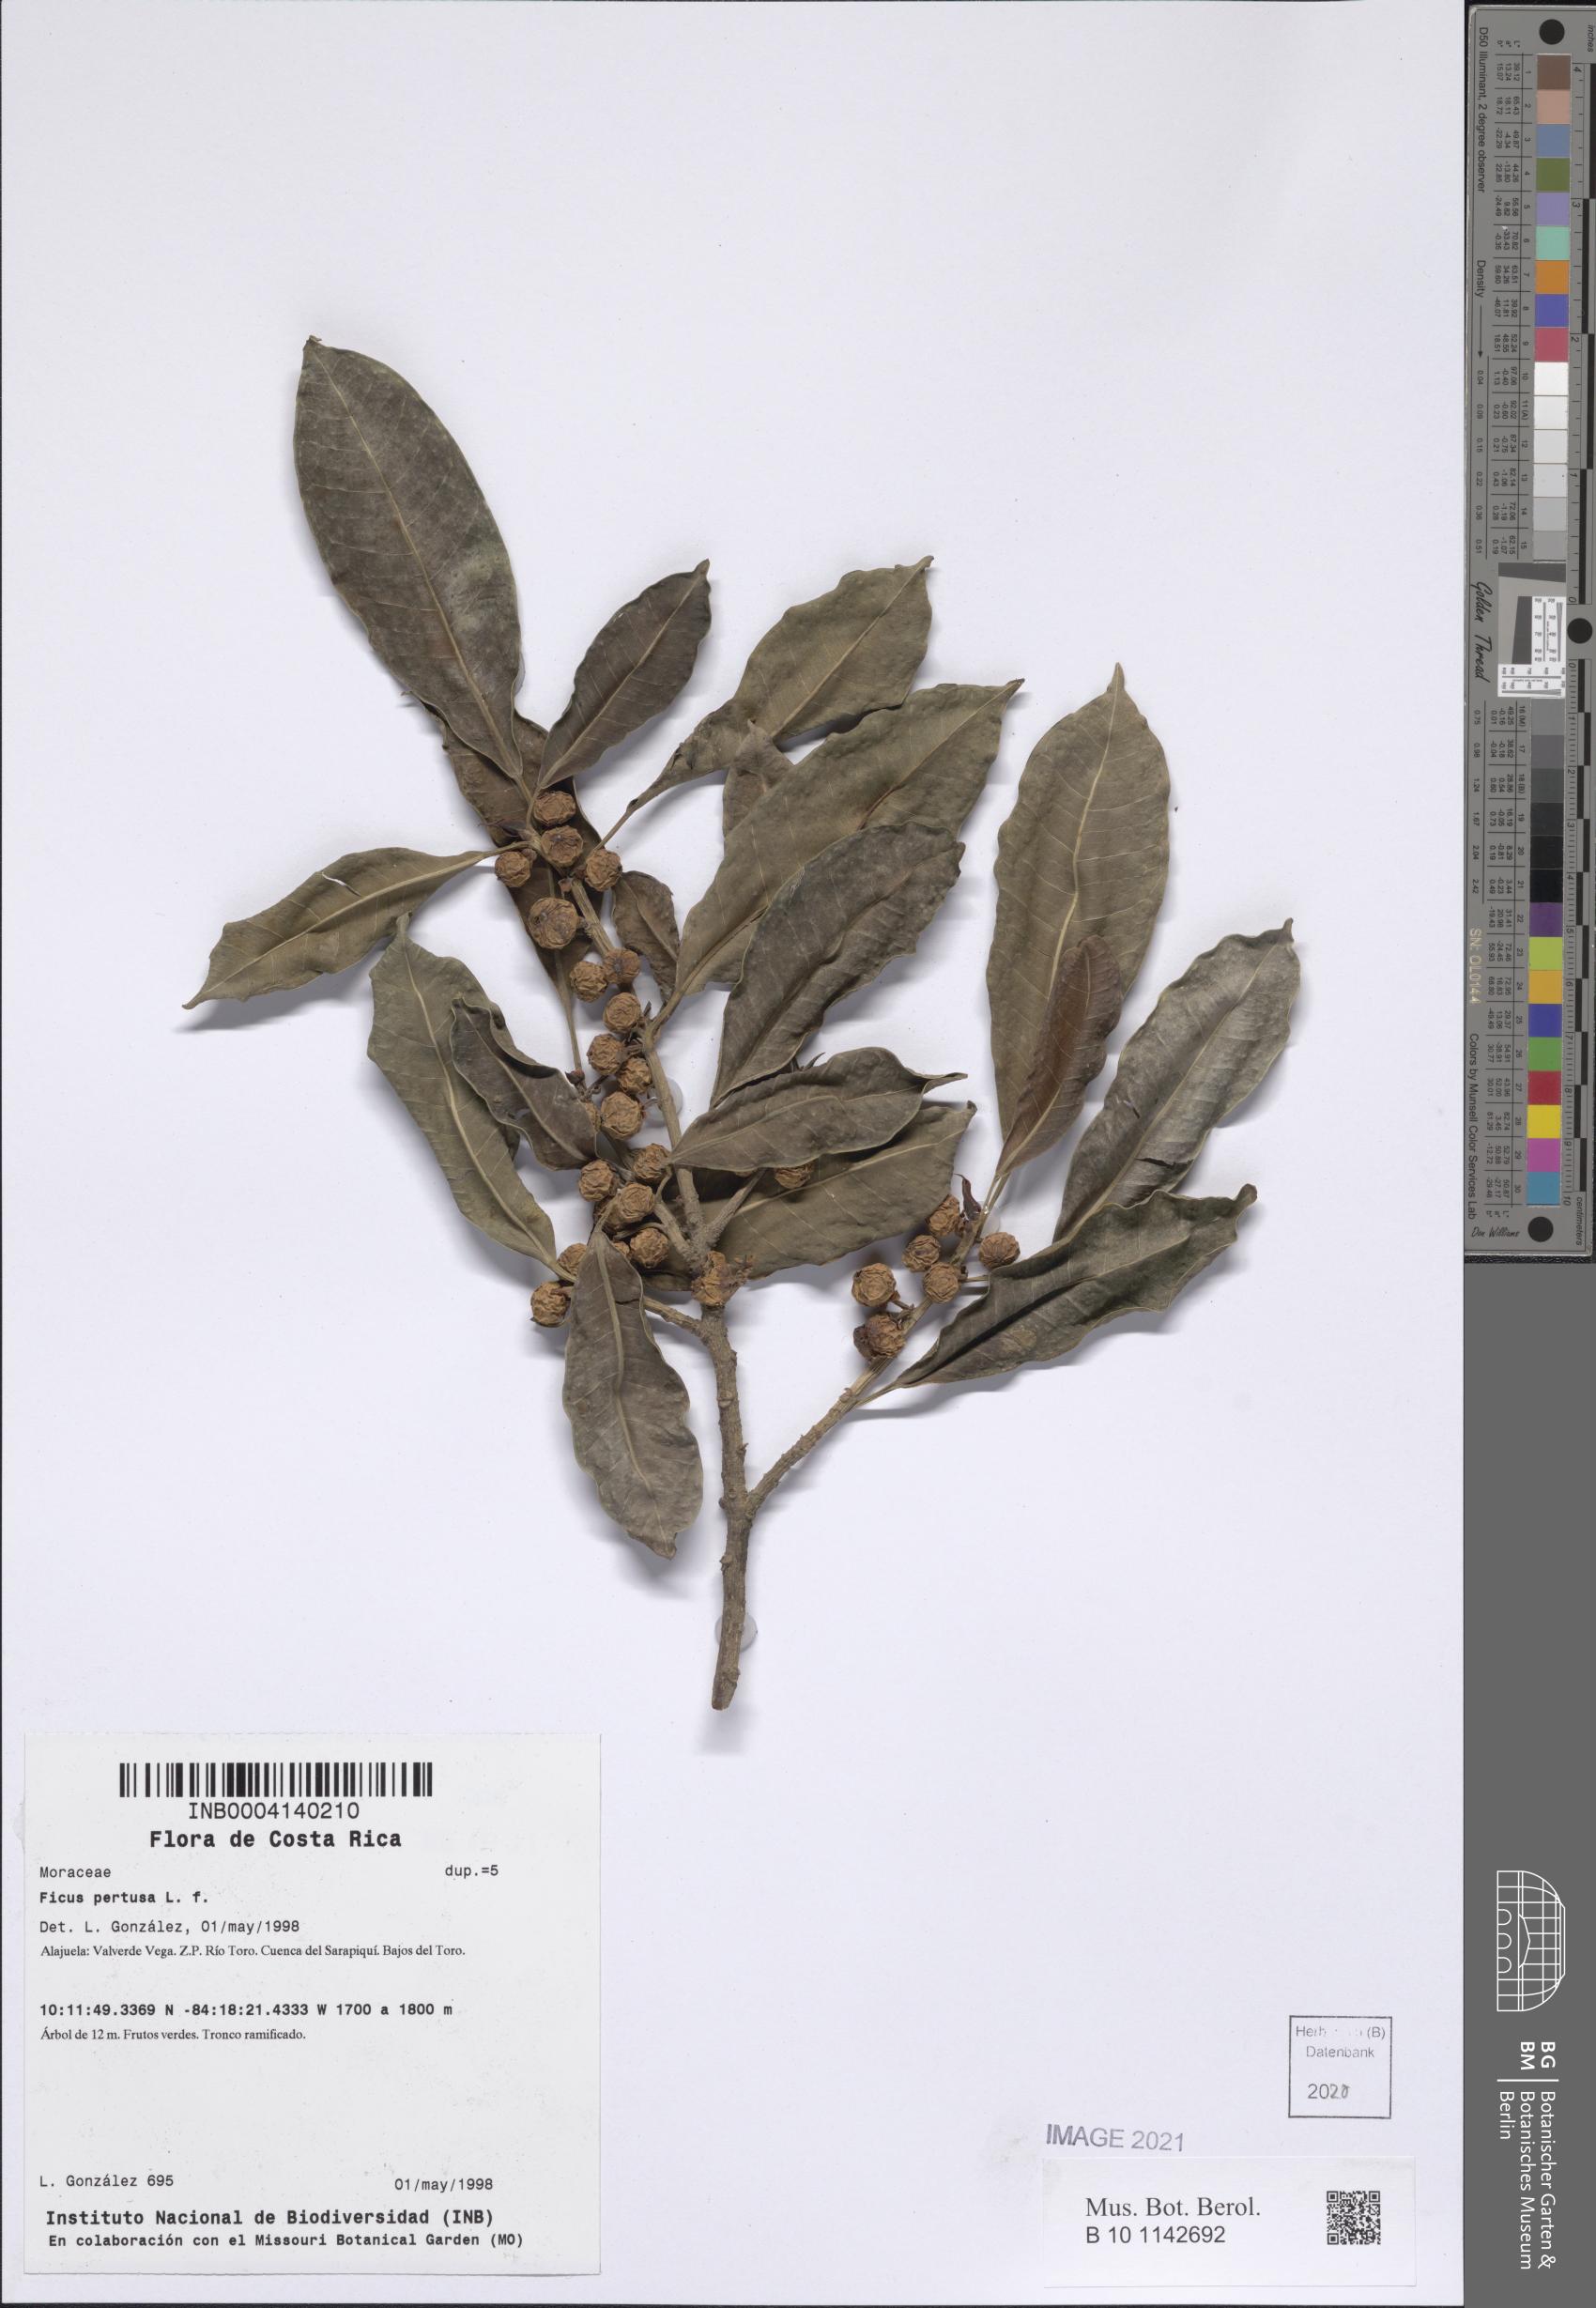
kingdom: Plantae
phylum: Tracheophyta
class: Magnoliopsida
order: Rosales
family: Moraceae
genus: Ficus
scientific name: Ficus pertusa
